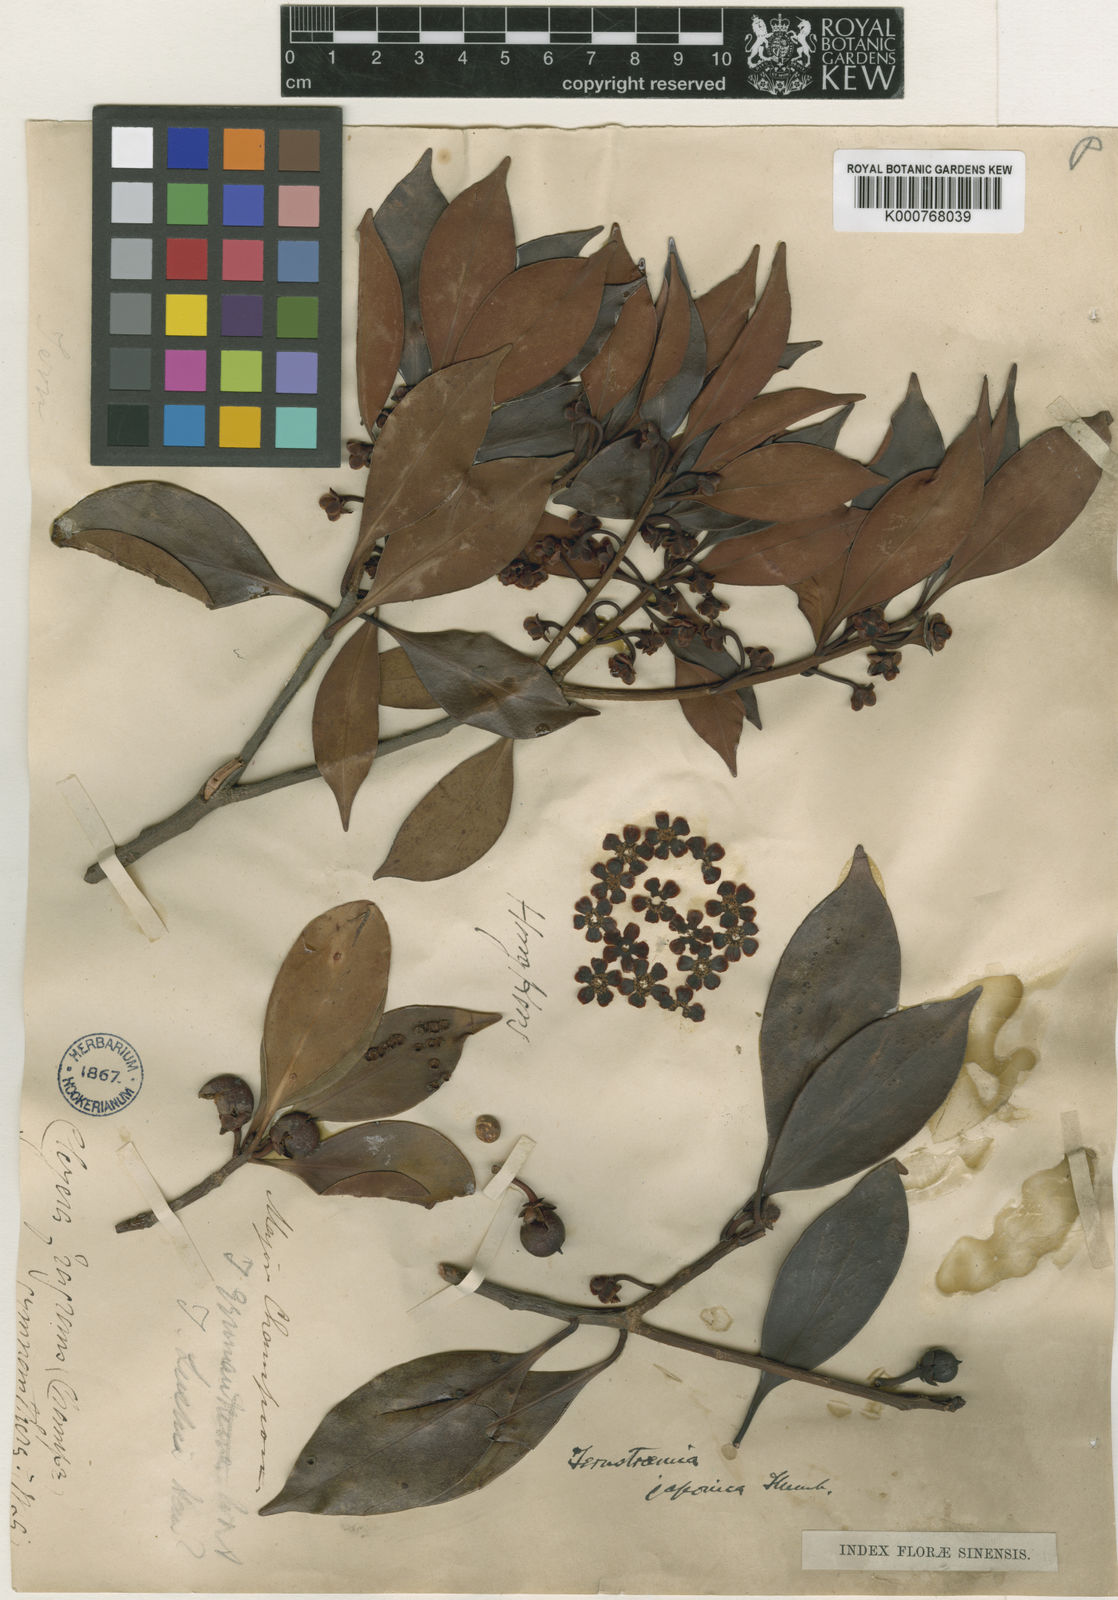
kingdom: Plantae
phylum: Tracheophyta
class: Magnoliopsida
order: Ericales
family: Pentaphylacaceae
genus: Ternstroemia
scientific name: Ternstroemia
